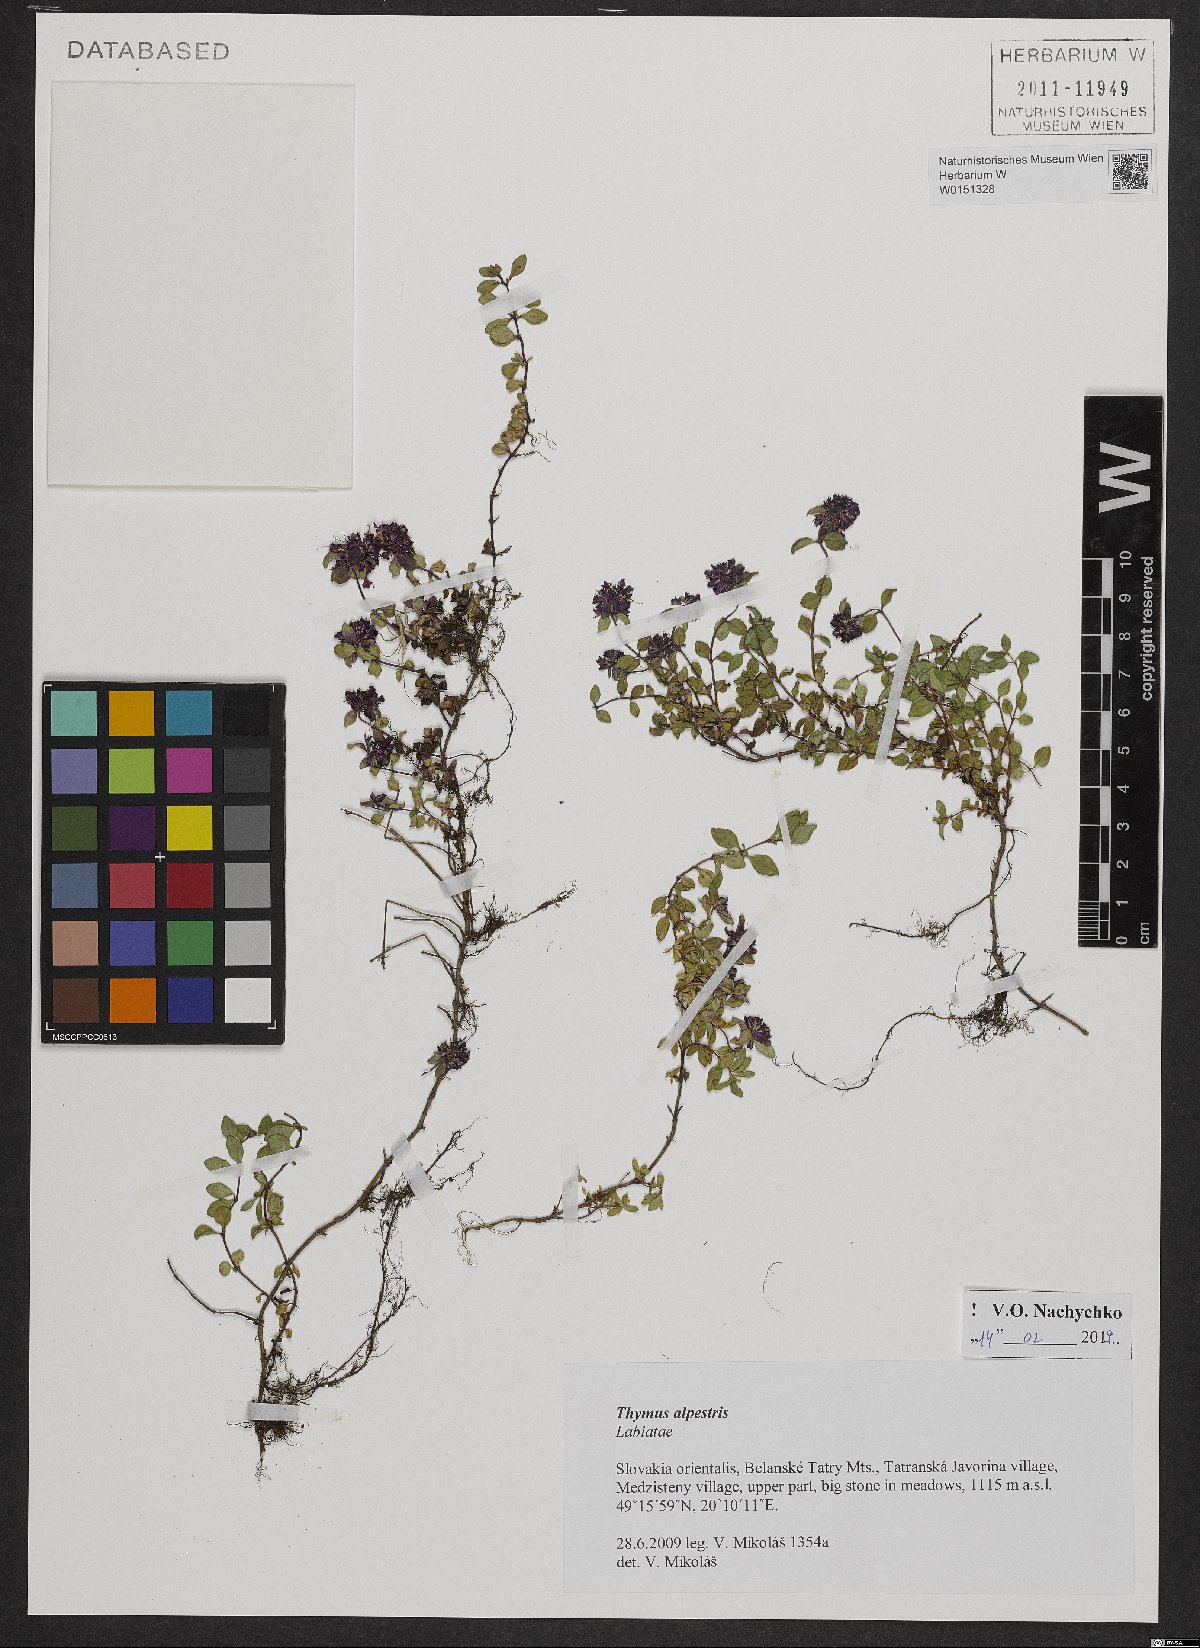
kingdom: Plantae
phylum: Tracheophyta
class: Magnoliopsida
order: Lamiales
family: Lamiaceae
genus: Thymus
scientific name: Thymus alpestris
